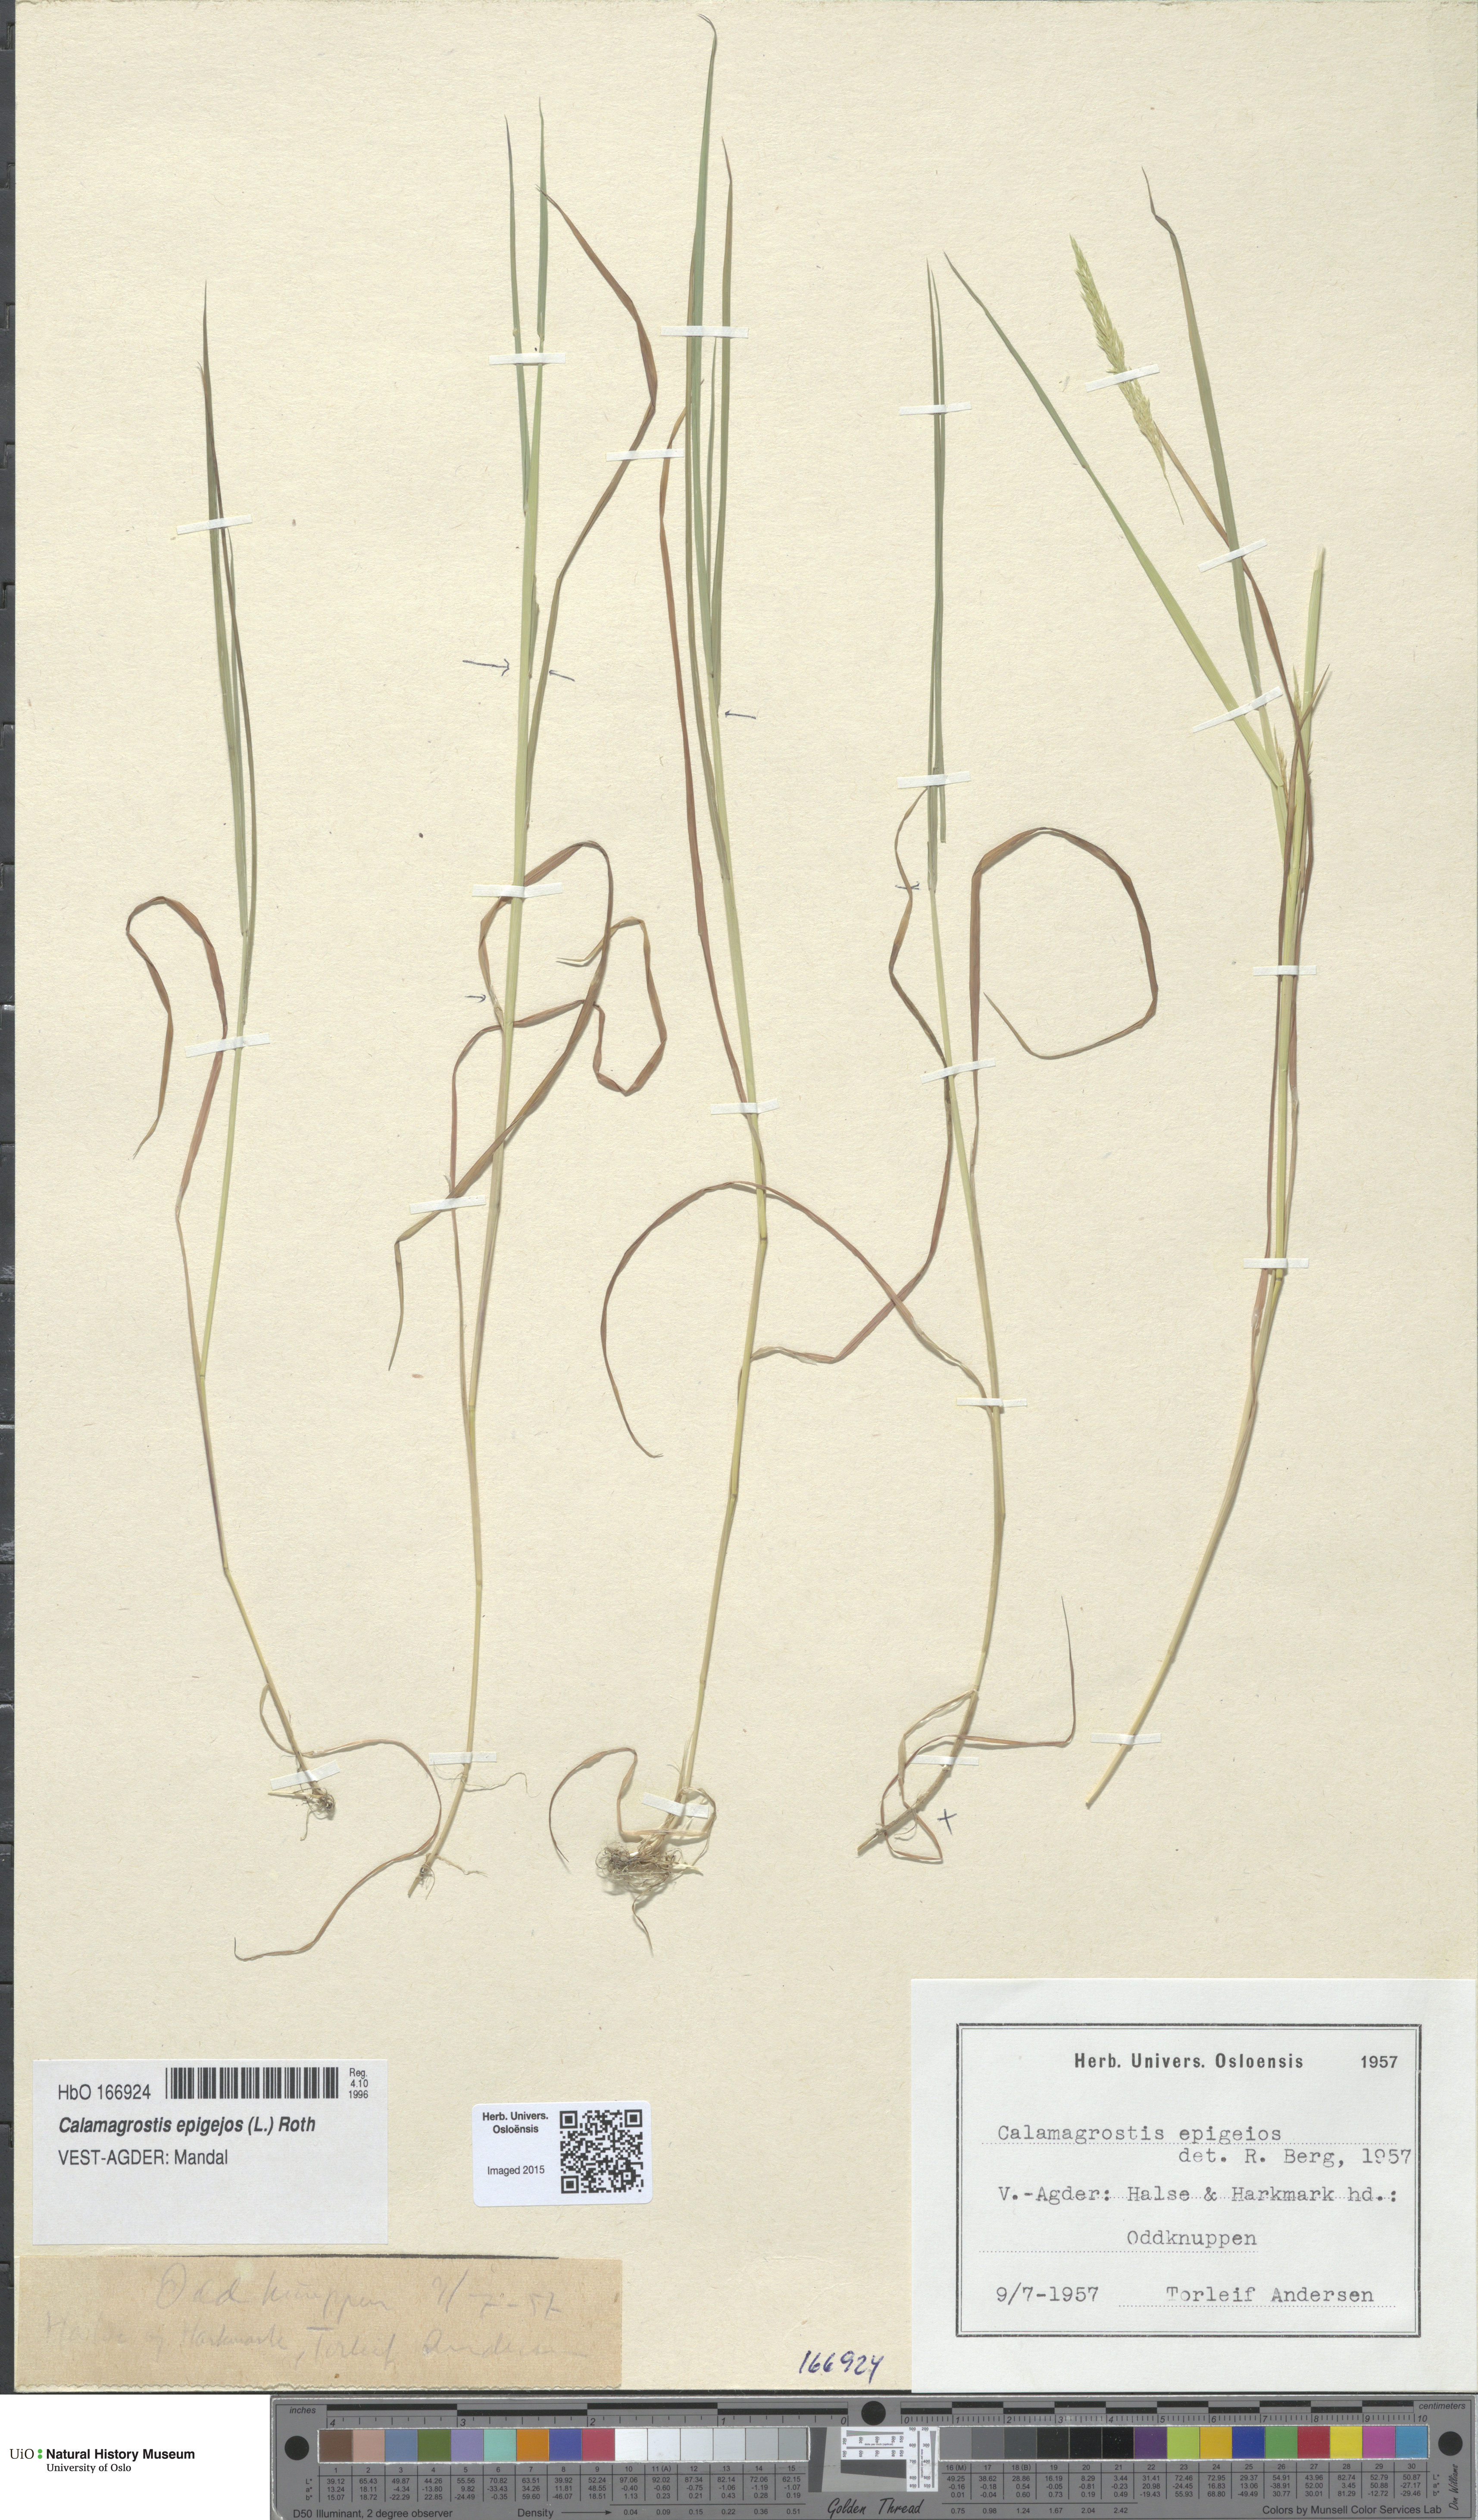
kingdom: Plantae
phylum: Tracheophyta
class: Liliopsida
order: Poales
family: Poaceae
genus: Calamagrostis
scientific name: Calamagrostis epigejos
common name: Wood small-reed
